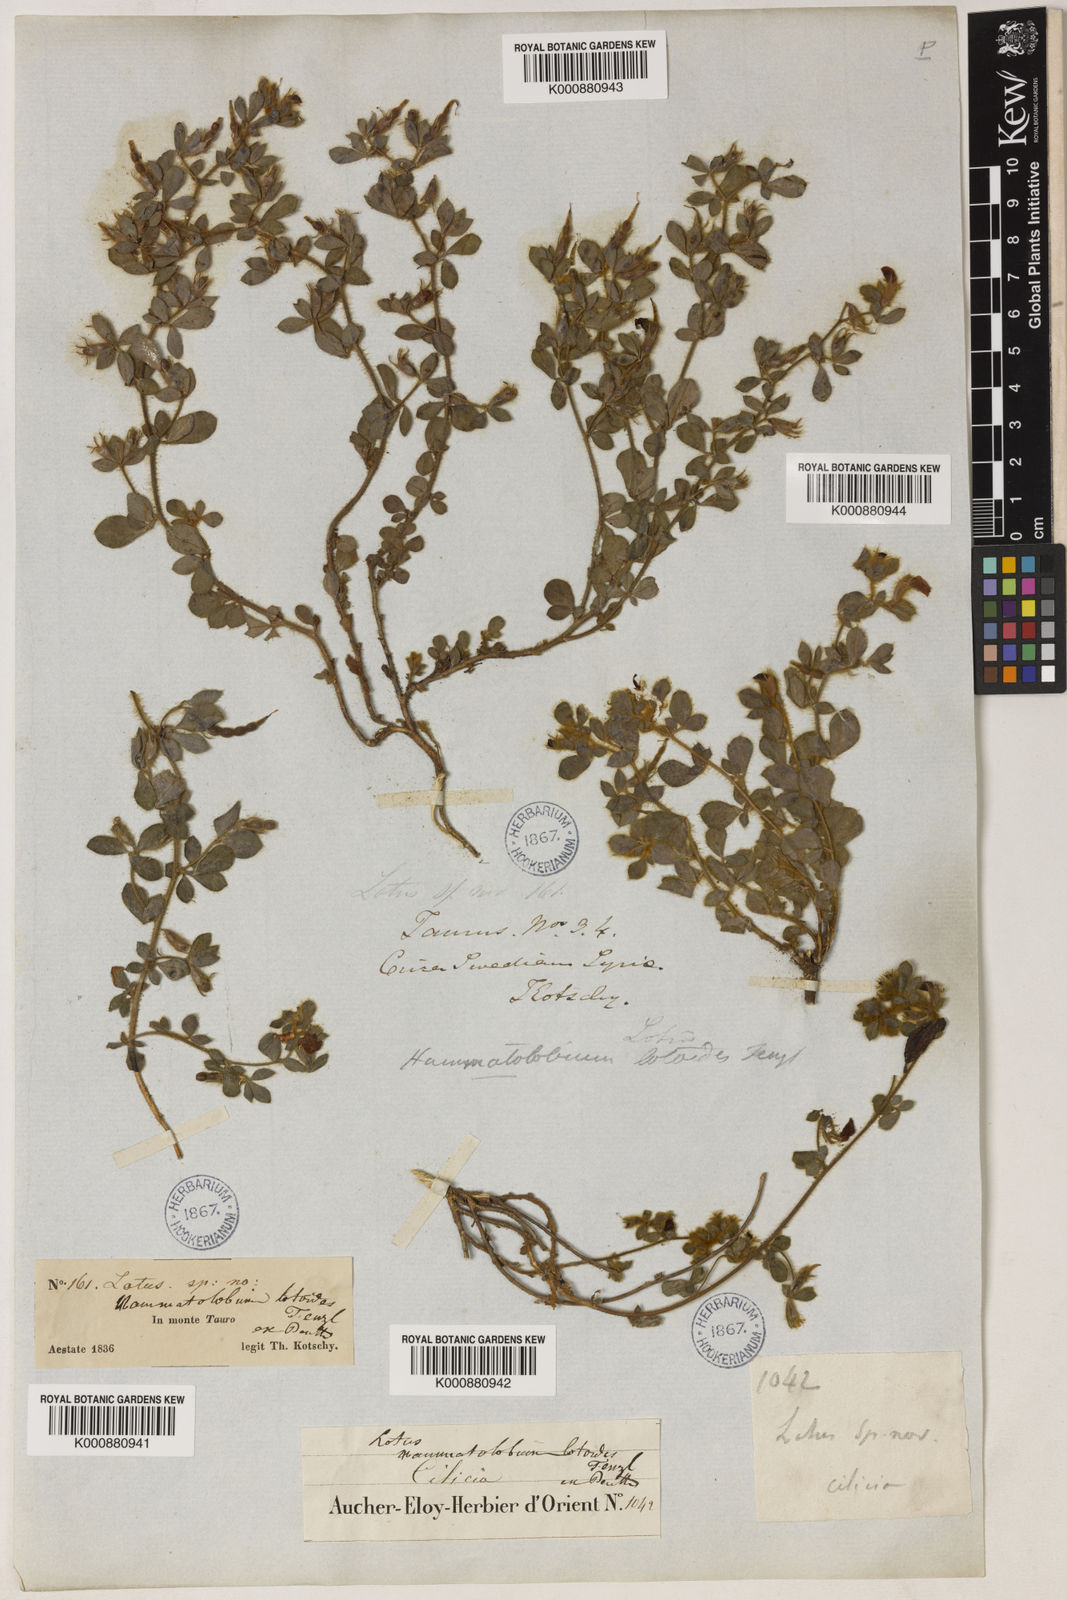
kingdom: Plantae
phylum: Tracheophyta
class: Magnoliopsida
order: Fabales
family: Fabaceae
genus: Hammatolobium
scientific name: Hammatolobium lotoides
